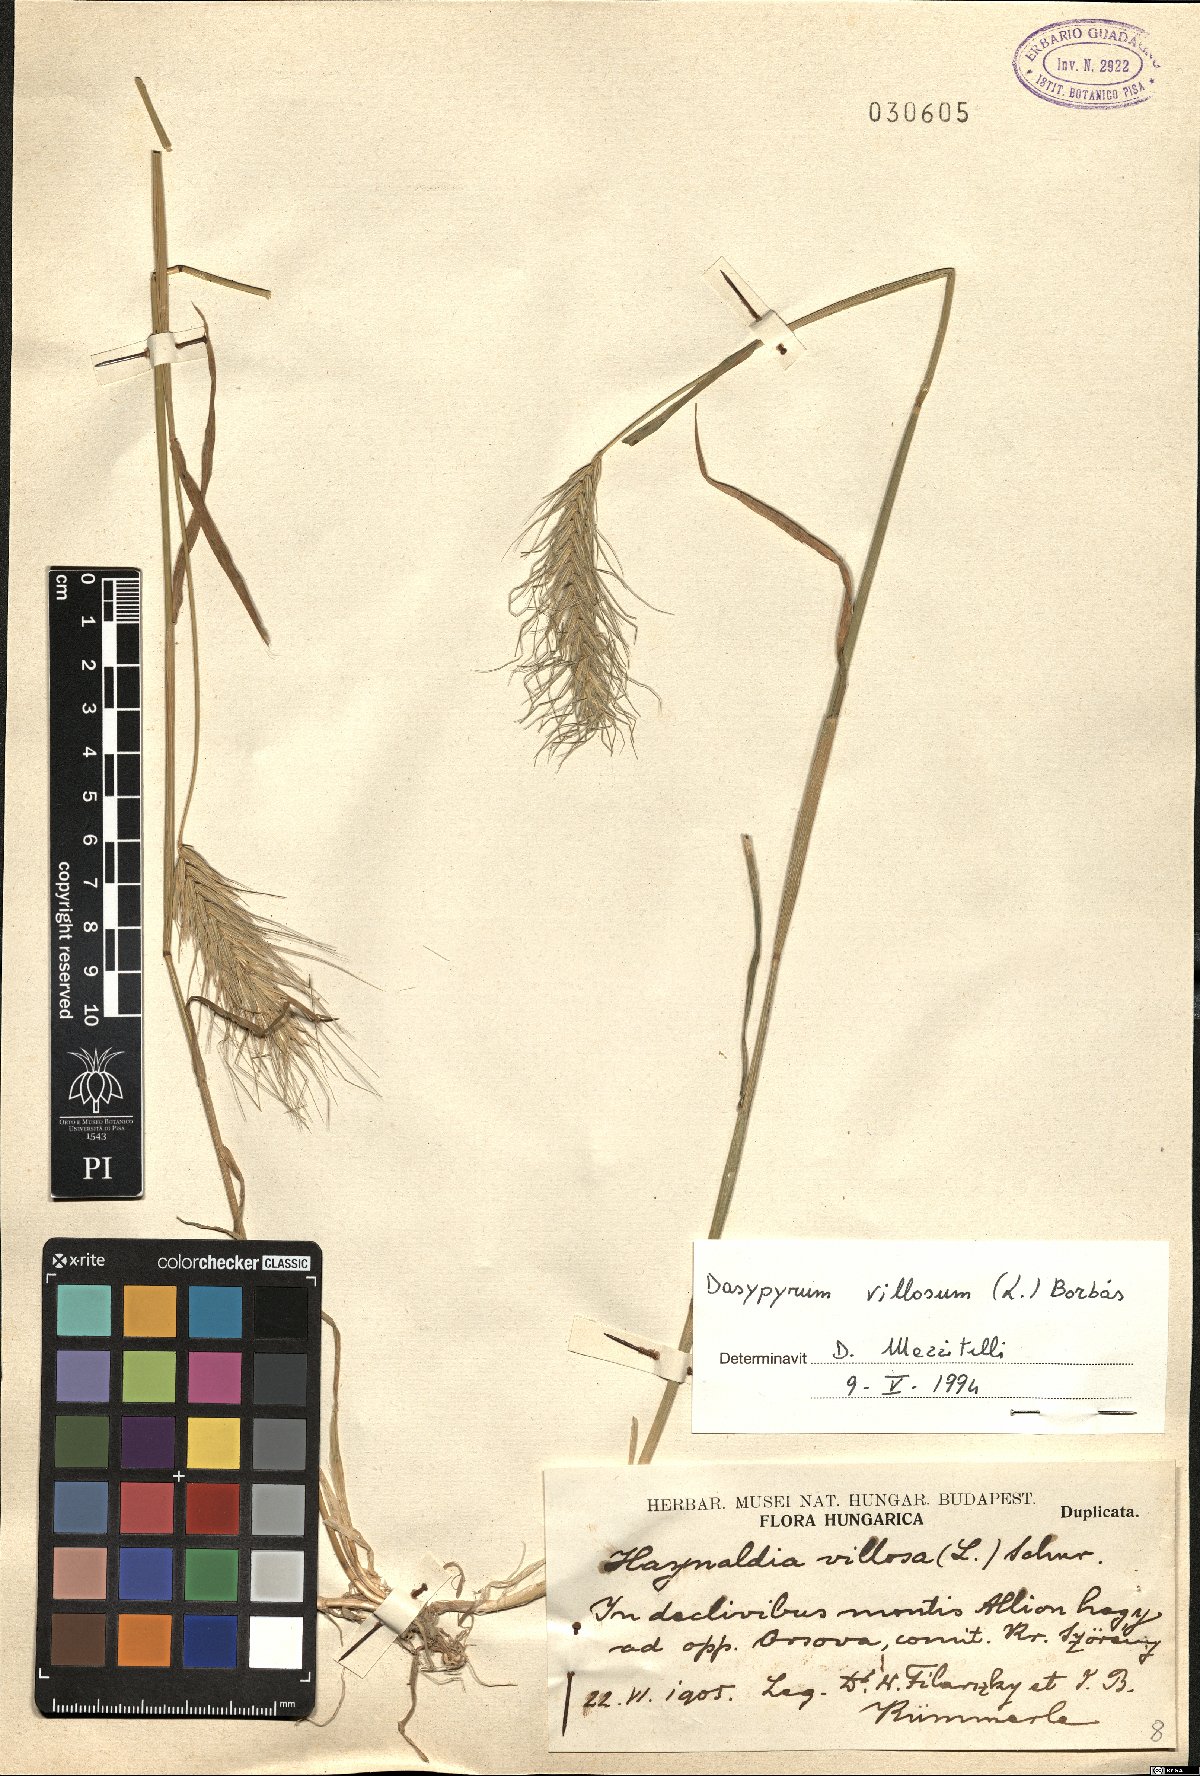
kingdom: Plantae
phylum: Tracheophyta
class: Liliopsida
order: Poales
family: Poaceae
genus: Dasypyrum
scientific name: Dasypyrum villosum
